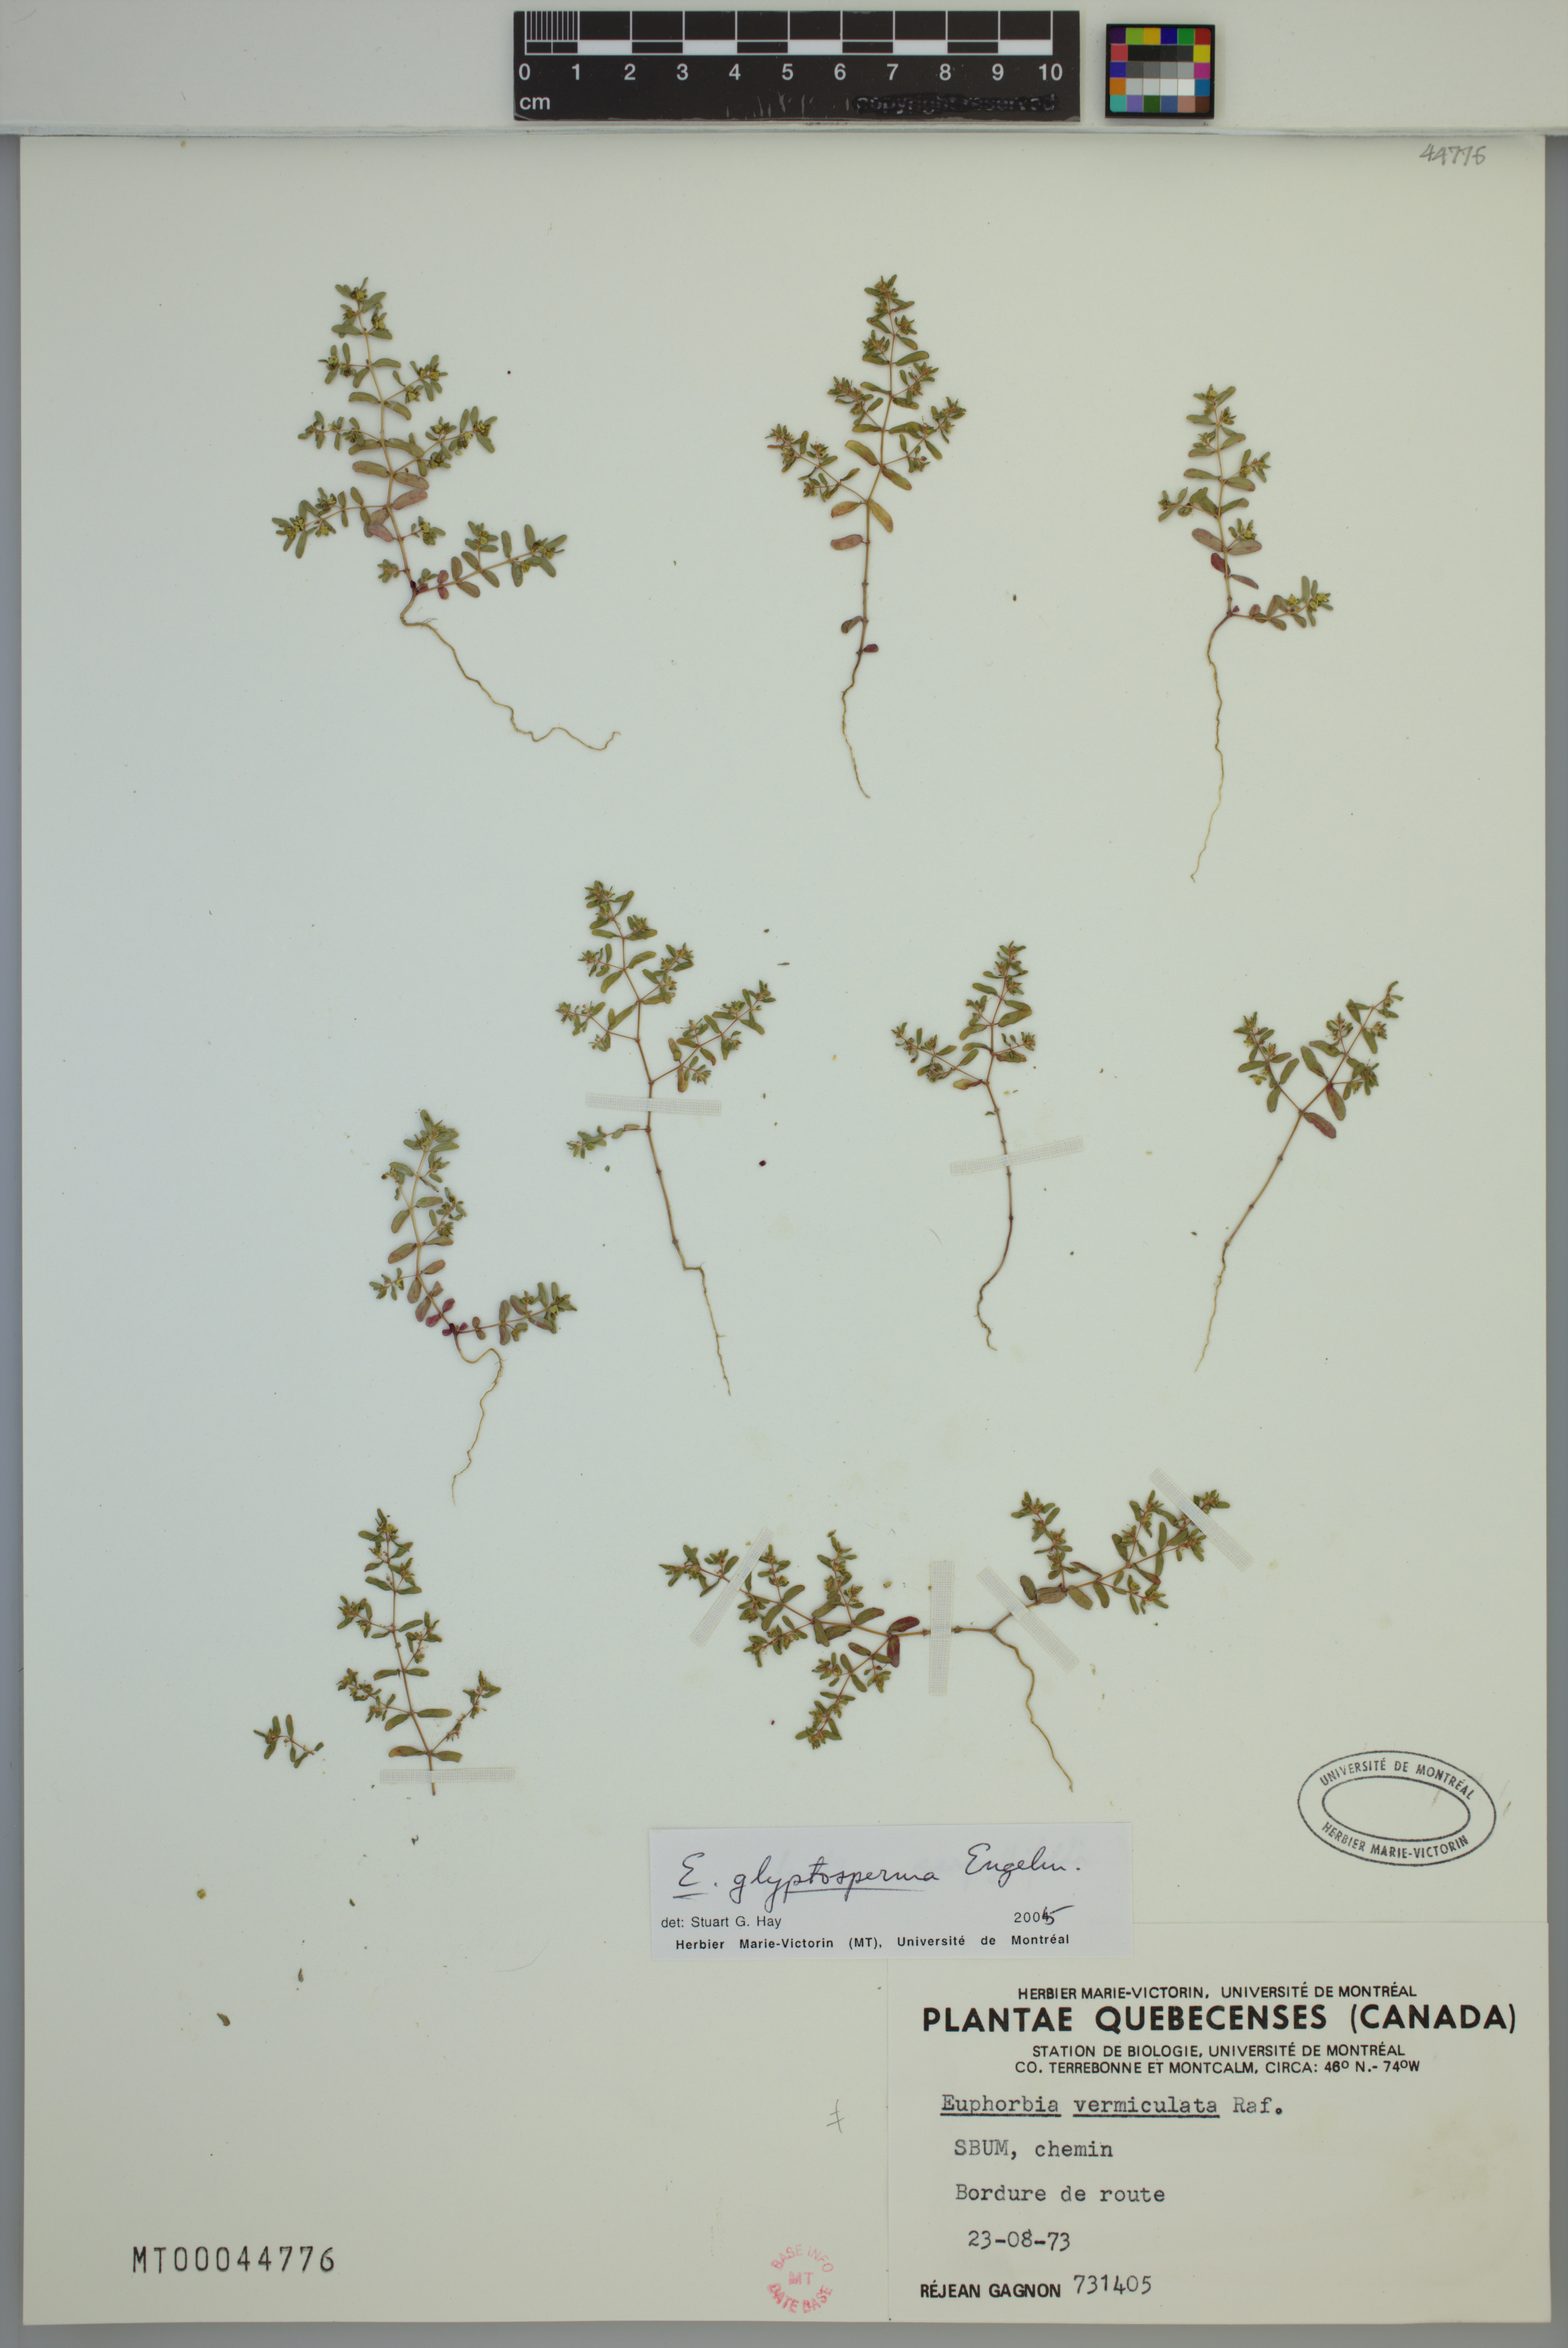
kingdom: Plantae
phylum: Tracheophyta
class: Magnoliopsida
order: Malpighiales
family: Euphorbiaceae
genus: Euphorbia
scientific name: Euphorbia glyptosperma
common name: Corrugate-seeded spurge
